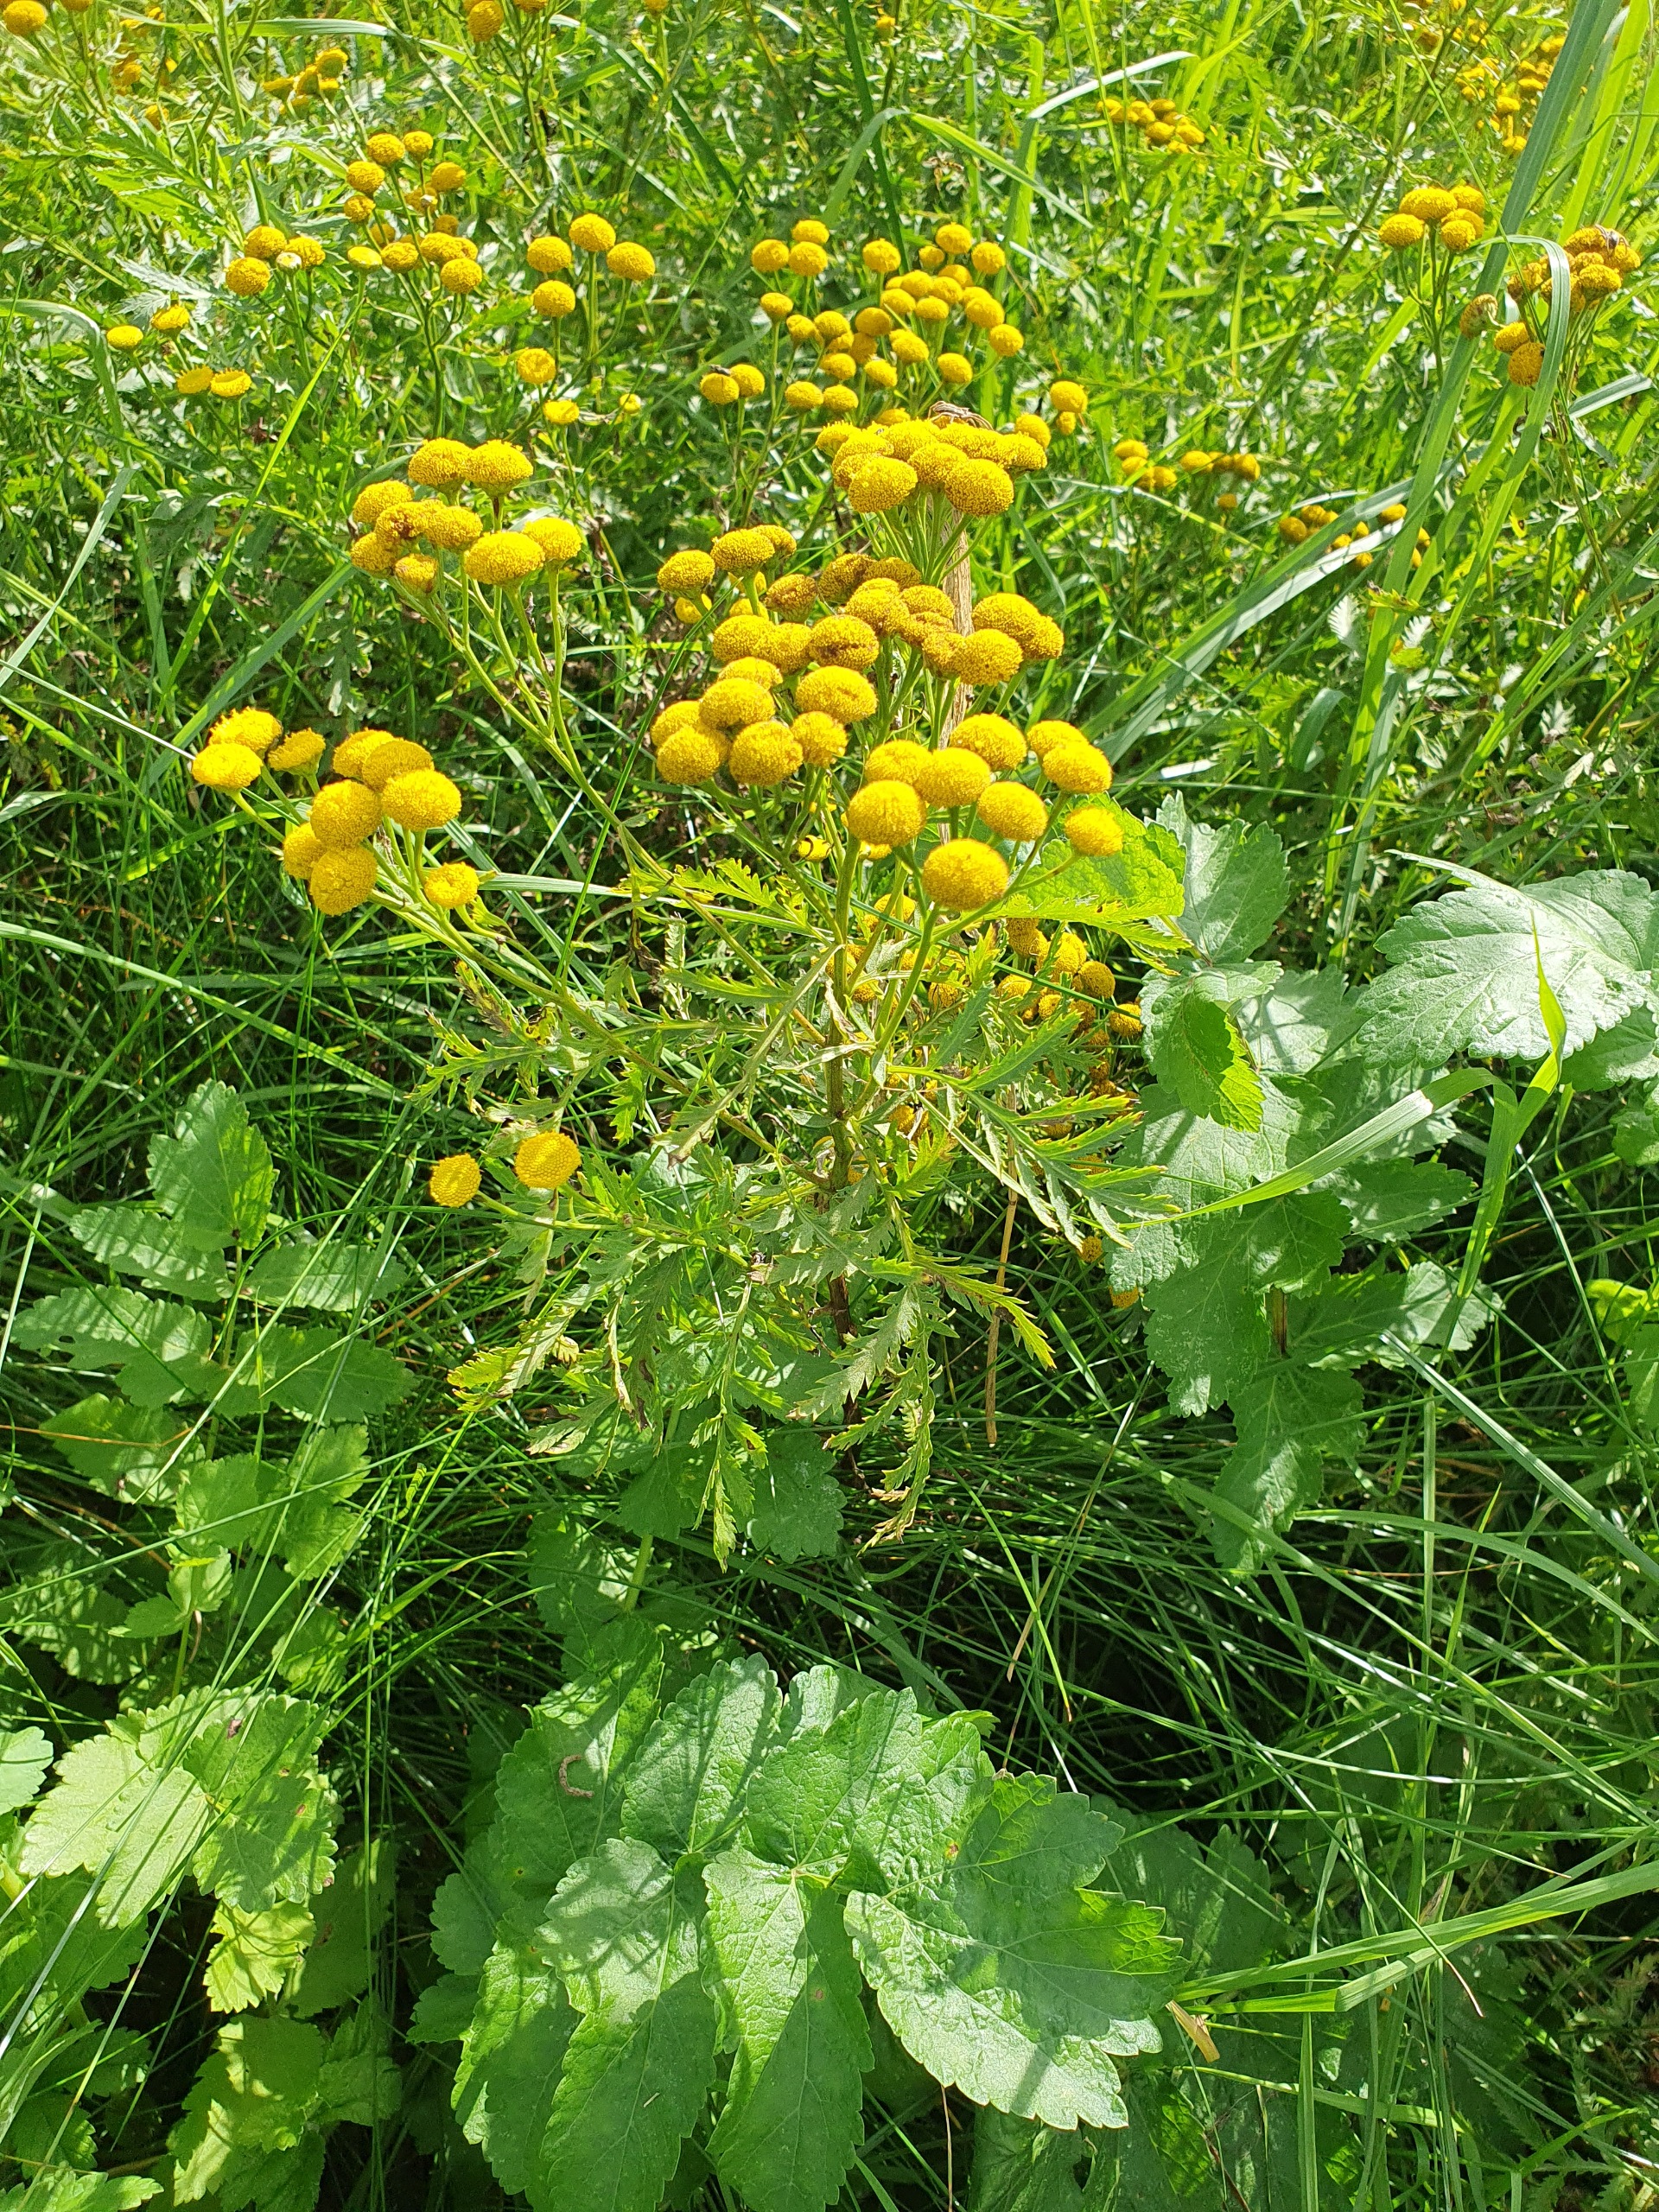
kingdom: Plantae
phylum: Tracheophyta
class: Magnoliopsida
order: Asterales
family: Asteraceae
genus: Tanacetum
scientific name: Tanacetum vulgare
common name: Rejnfan
